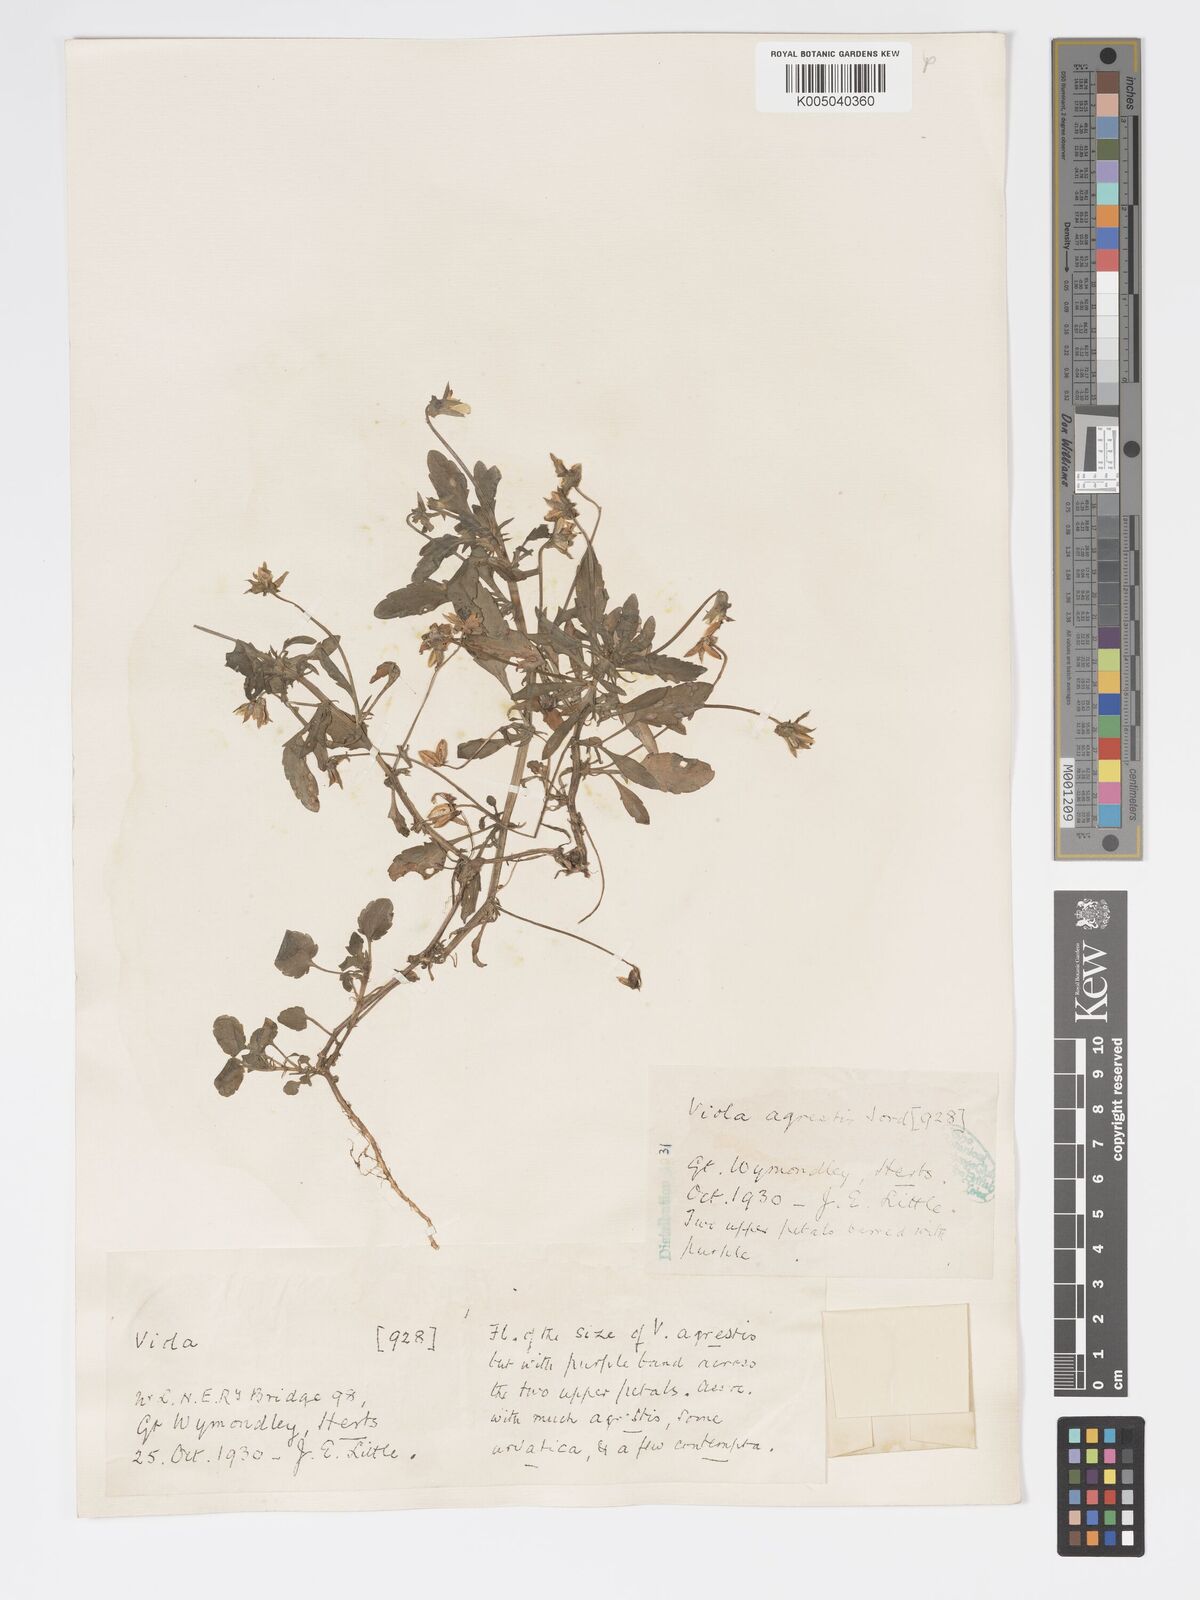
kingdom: Plantae
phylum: Tracheophyta
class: Magnoliopsida
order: Malpighiales
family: Violaceae
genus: Viola
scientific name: Viola arvensis
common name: Field pansy
